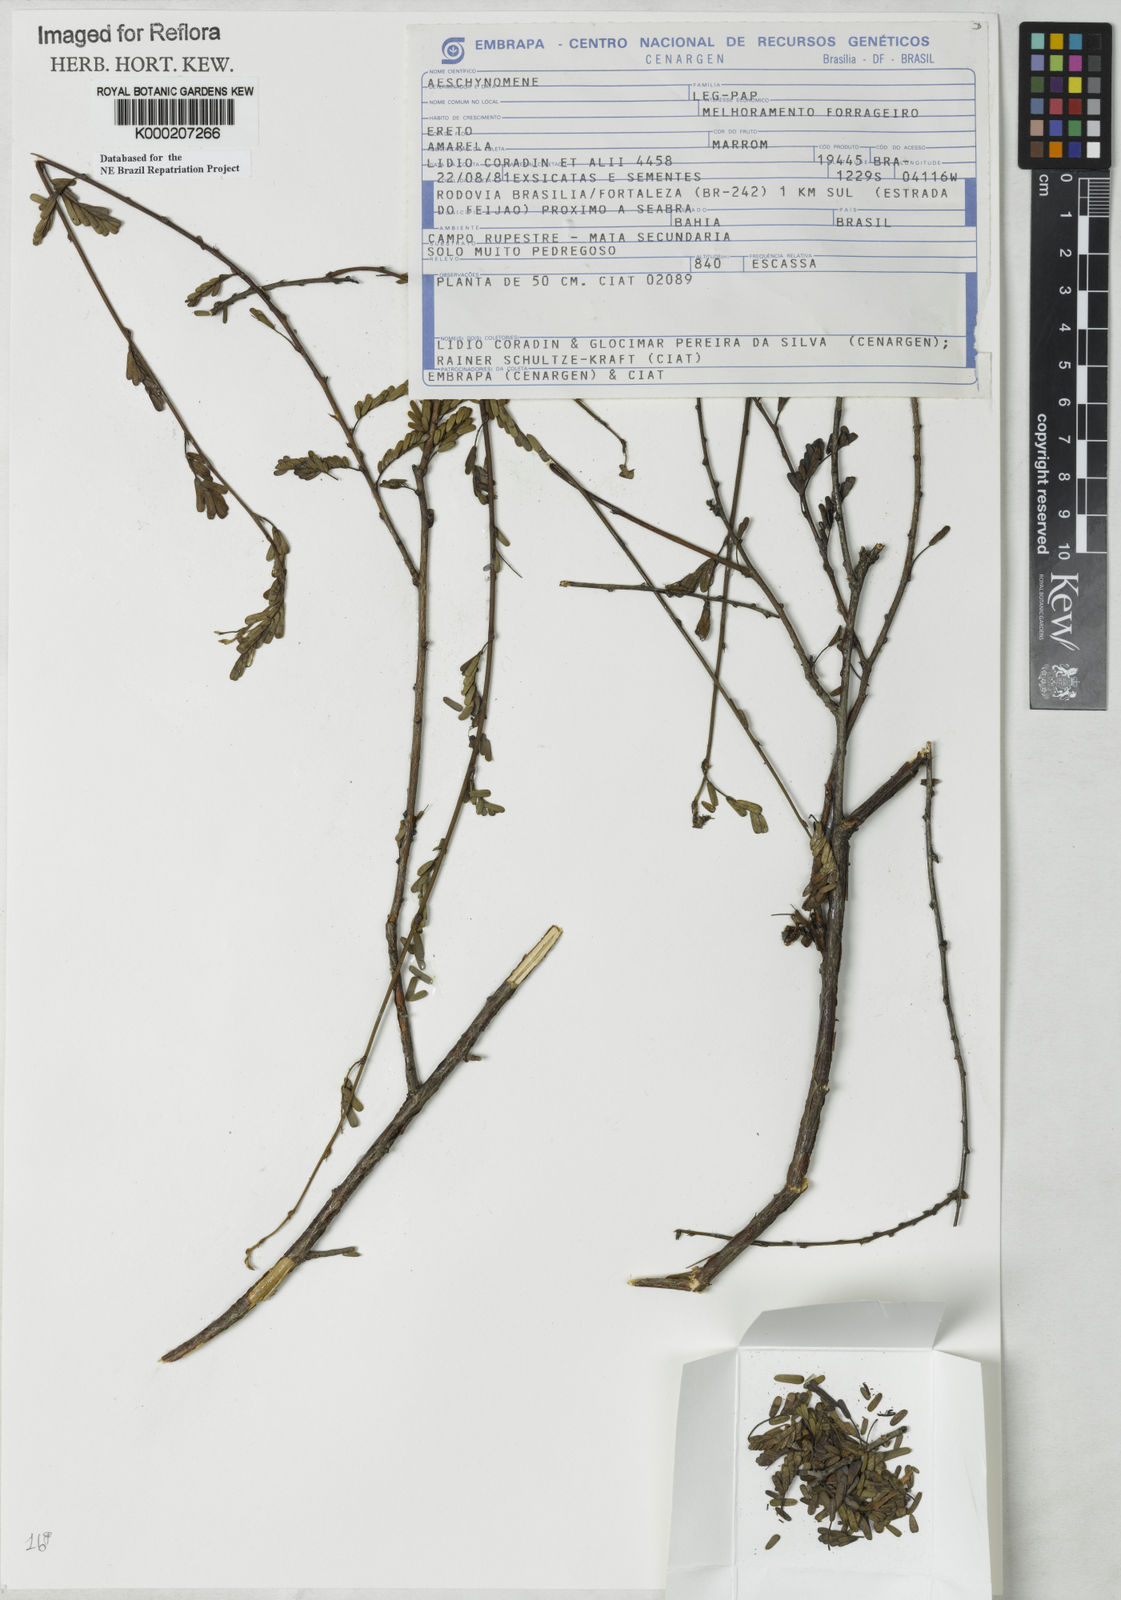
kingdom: Plantae
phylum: Tracheophyta
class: Magnoliopsida
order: Fabales
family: Fabaceae
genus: Aeschynomene
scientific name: Aeschynomene
